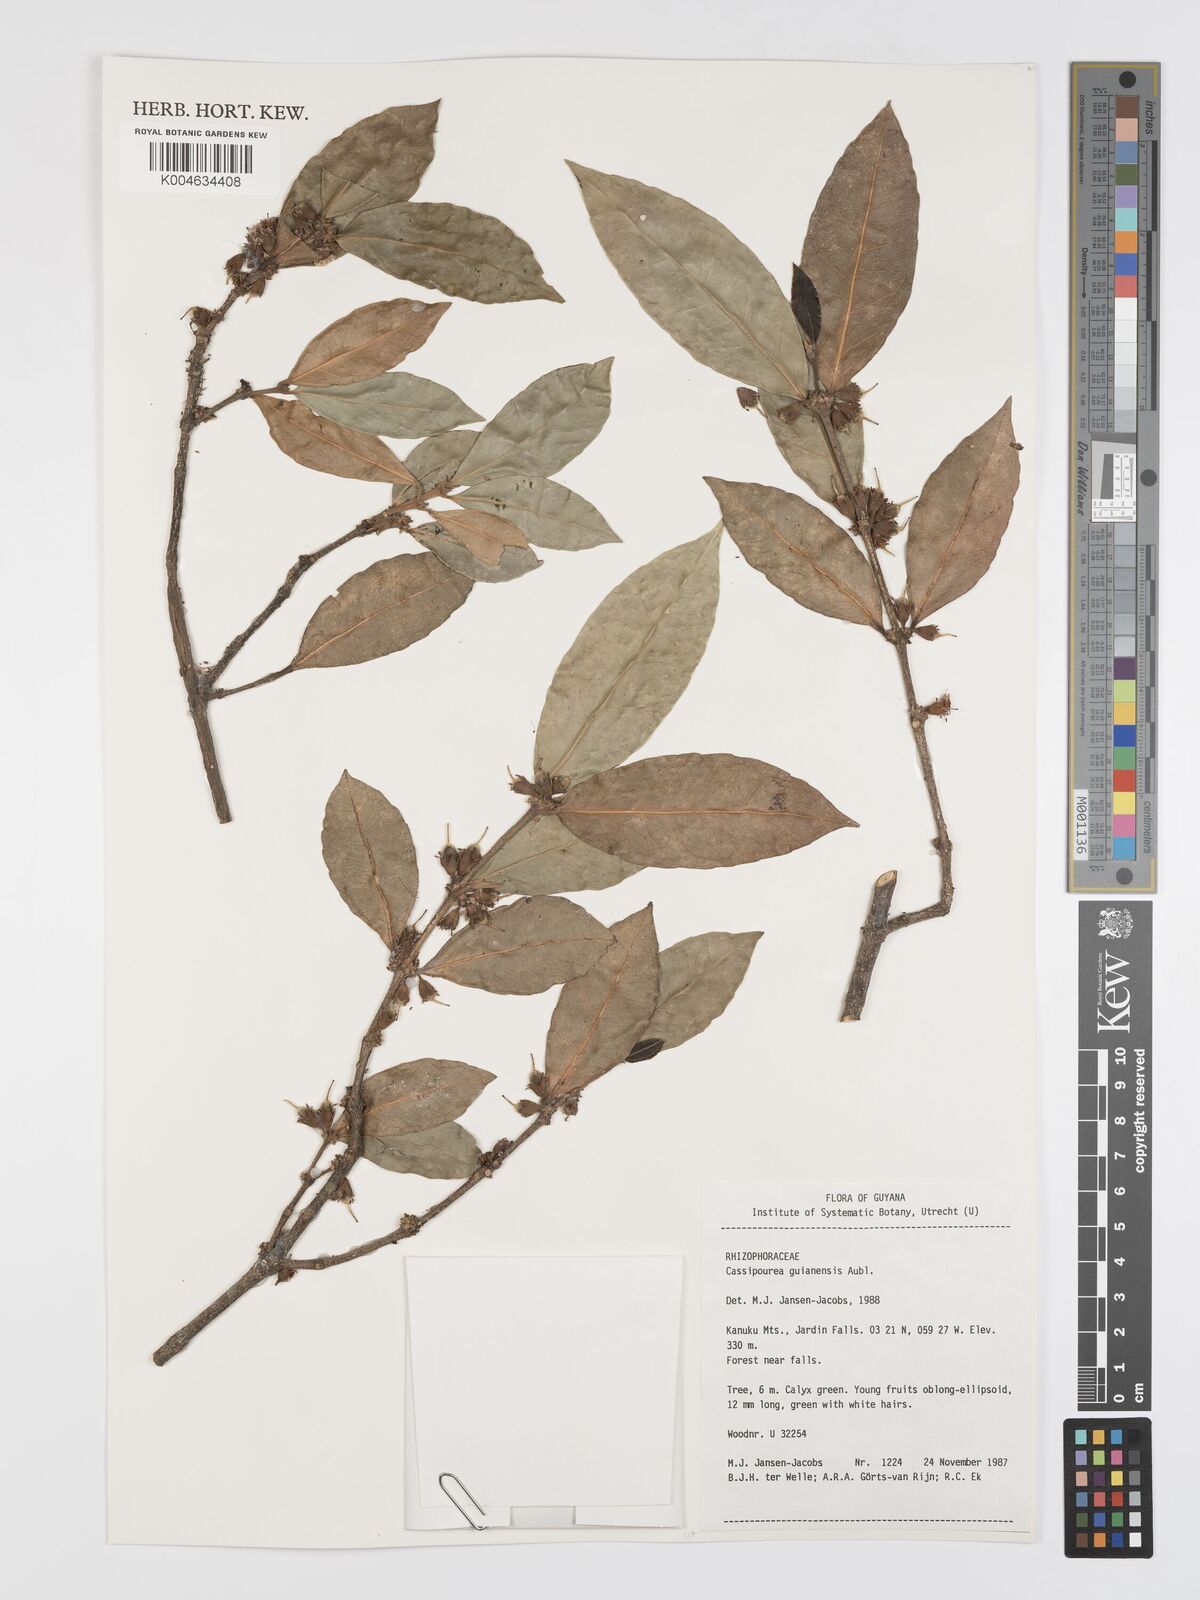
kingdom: Plantae
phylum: Tracheophyta
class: Magnoliopsida
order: Malpighiales
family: Rhizophoraceae
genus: Cassipourea
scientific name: Cassipourea guianensis
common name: Bastard waterwood
